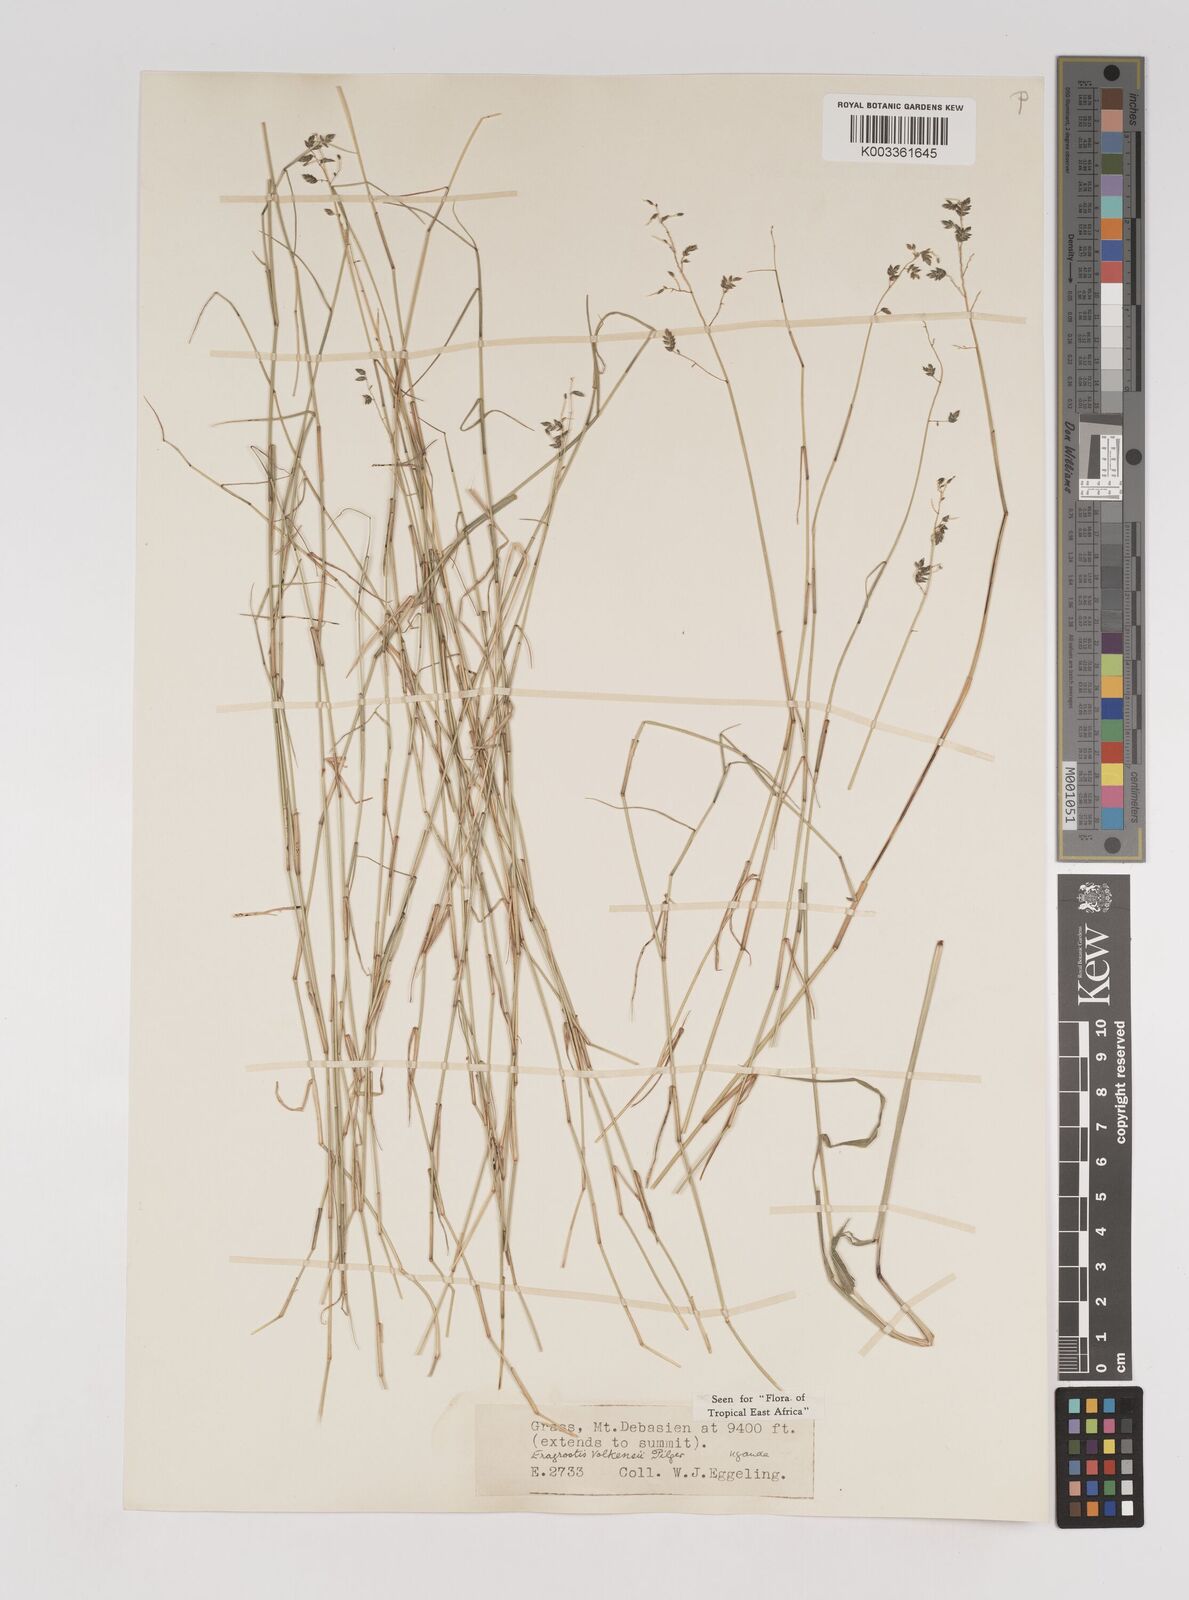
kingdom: Plantae
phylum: Tracheophyta
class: Liliopsida
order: Poales
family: Poaceae
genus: Eragrostis
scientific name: Eragrostis volkensii
